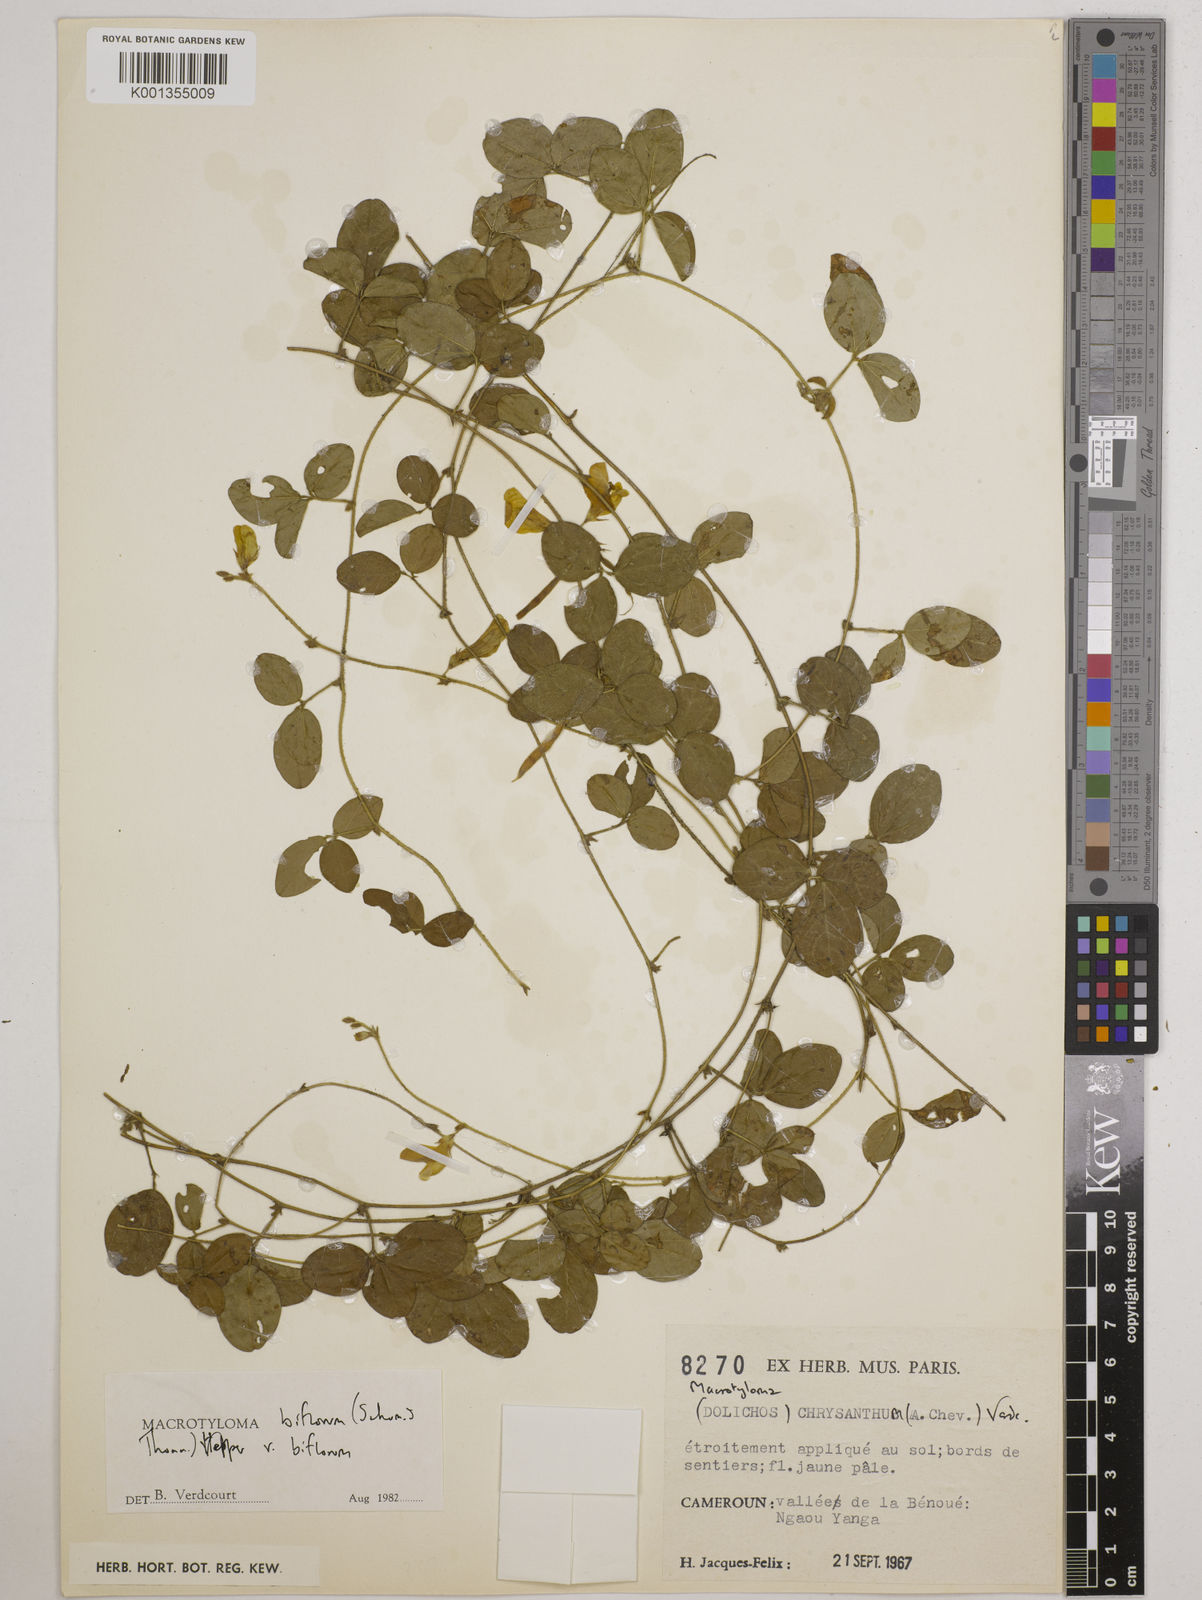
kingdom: Plantae
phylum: Tracheophyta
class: Magnoliopsida
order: Fabales
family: Fabaceae
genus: Macrotyloma
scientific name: Macrotyloma biflorum
